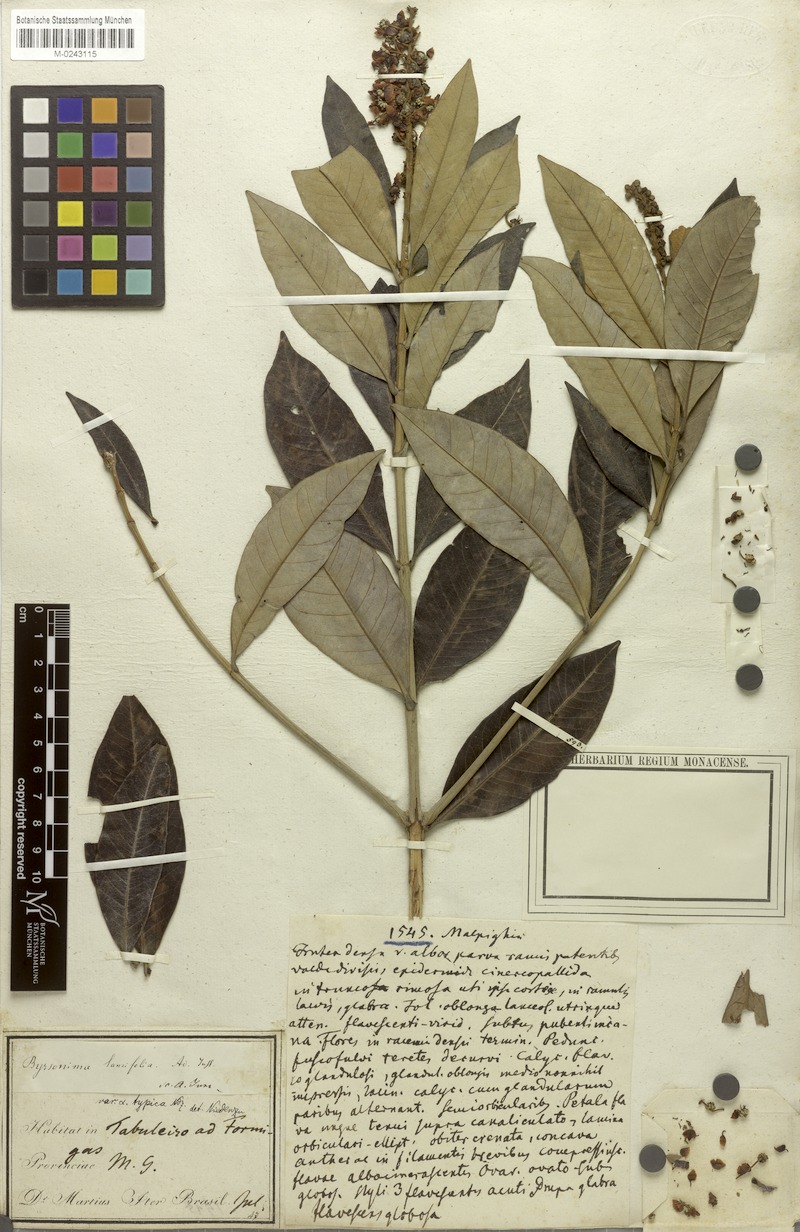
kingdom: Plantae
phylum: Tracheophyta
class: Magnoliopsida
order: Malpighiales
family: Malpighiaceae
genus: Byrsonima
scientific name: Byrsonima lancifolia
